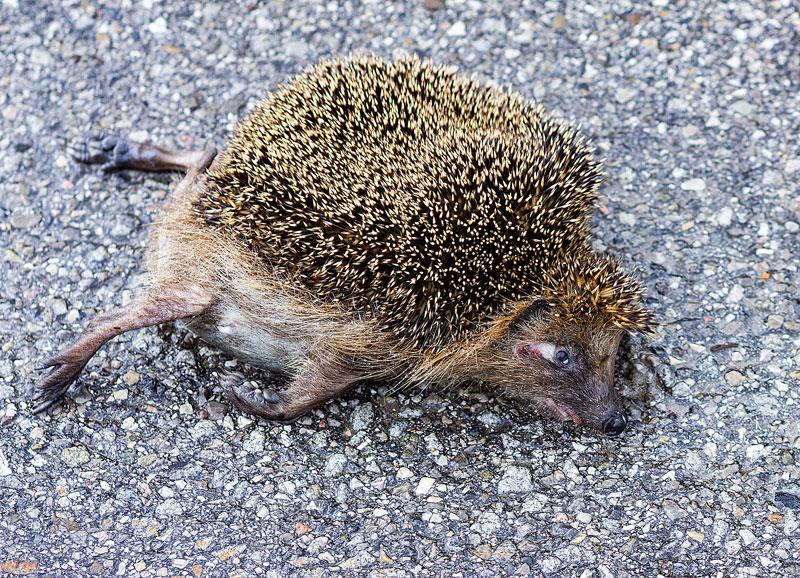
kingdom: Animalia
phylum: Chordata
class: Mammalia
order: Erinaceomorpha
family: Erinaceidae
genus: Erinaceus
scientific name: Erinaceus
